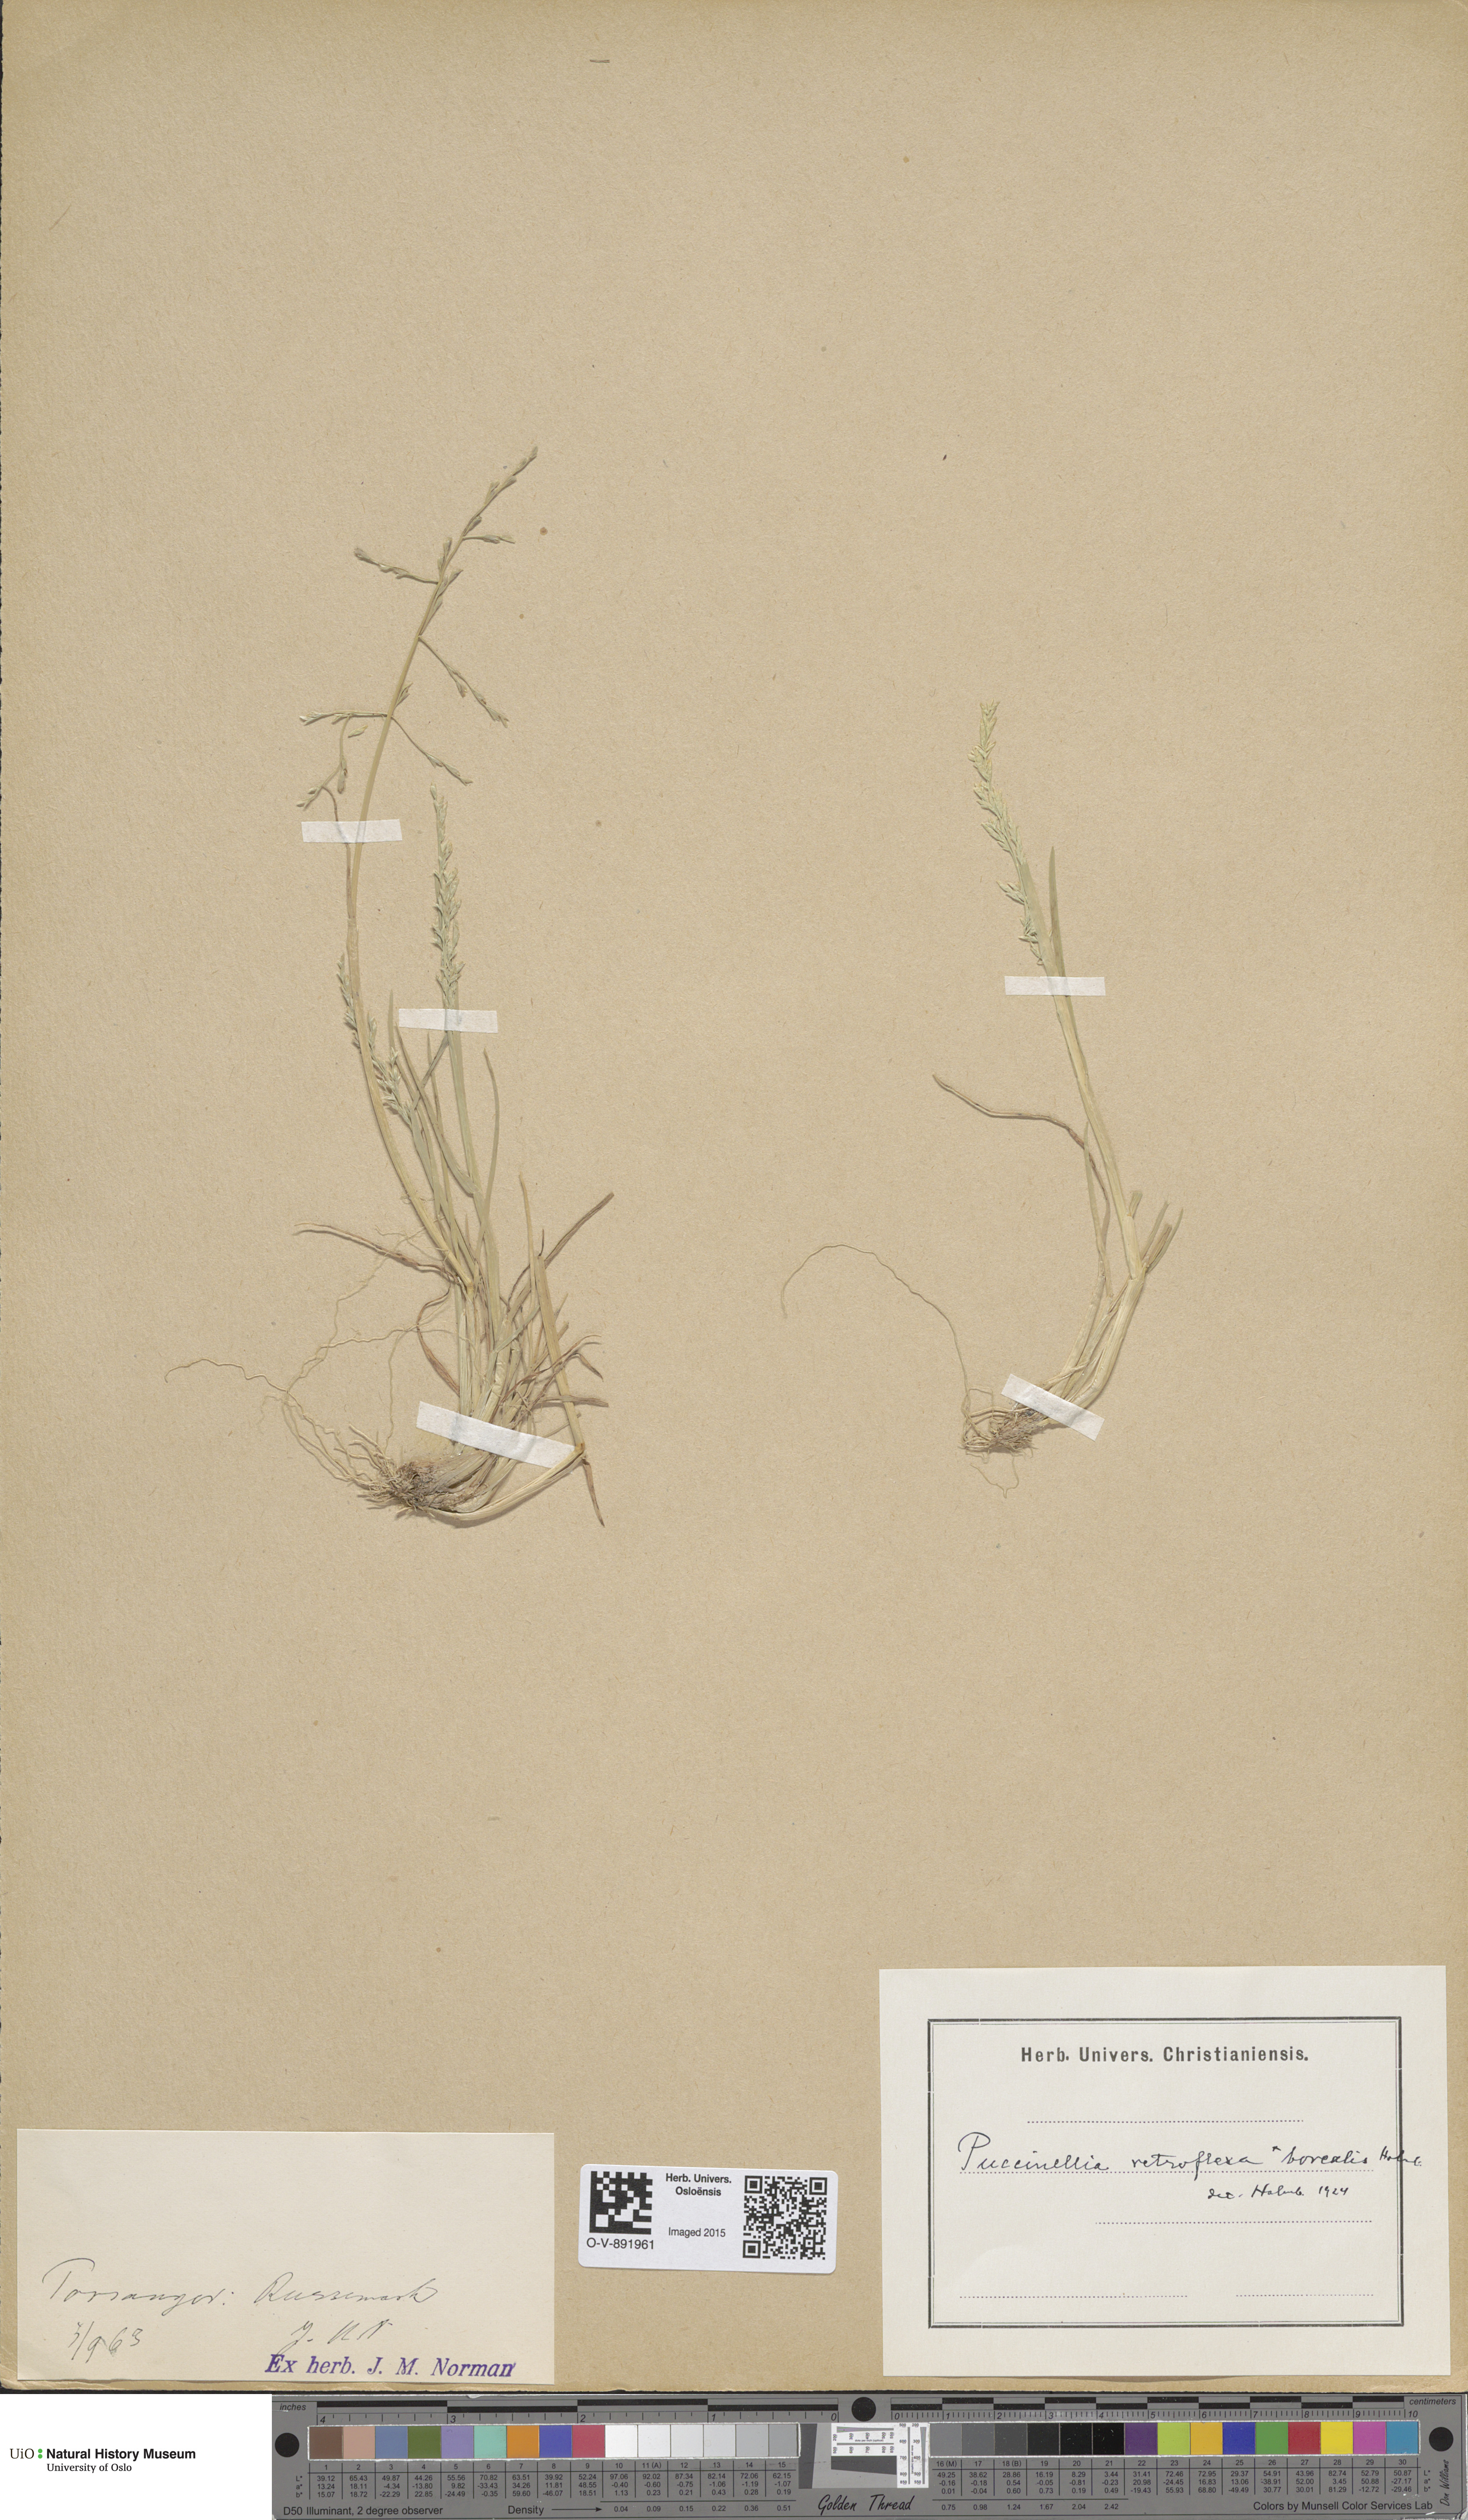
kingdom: Plantae
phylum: Tracheophyta
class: Liliopsida
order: Poales
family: Poaceae
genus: Puccinellia
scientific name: Puccinellia distans
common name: Weeping alkaligrass
